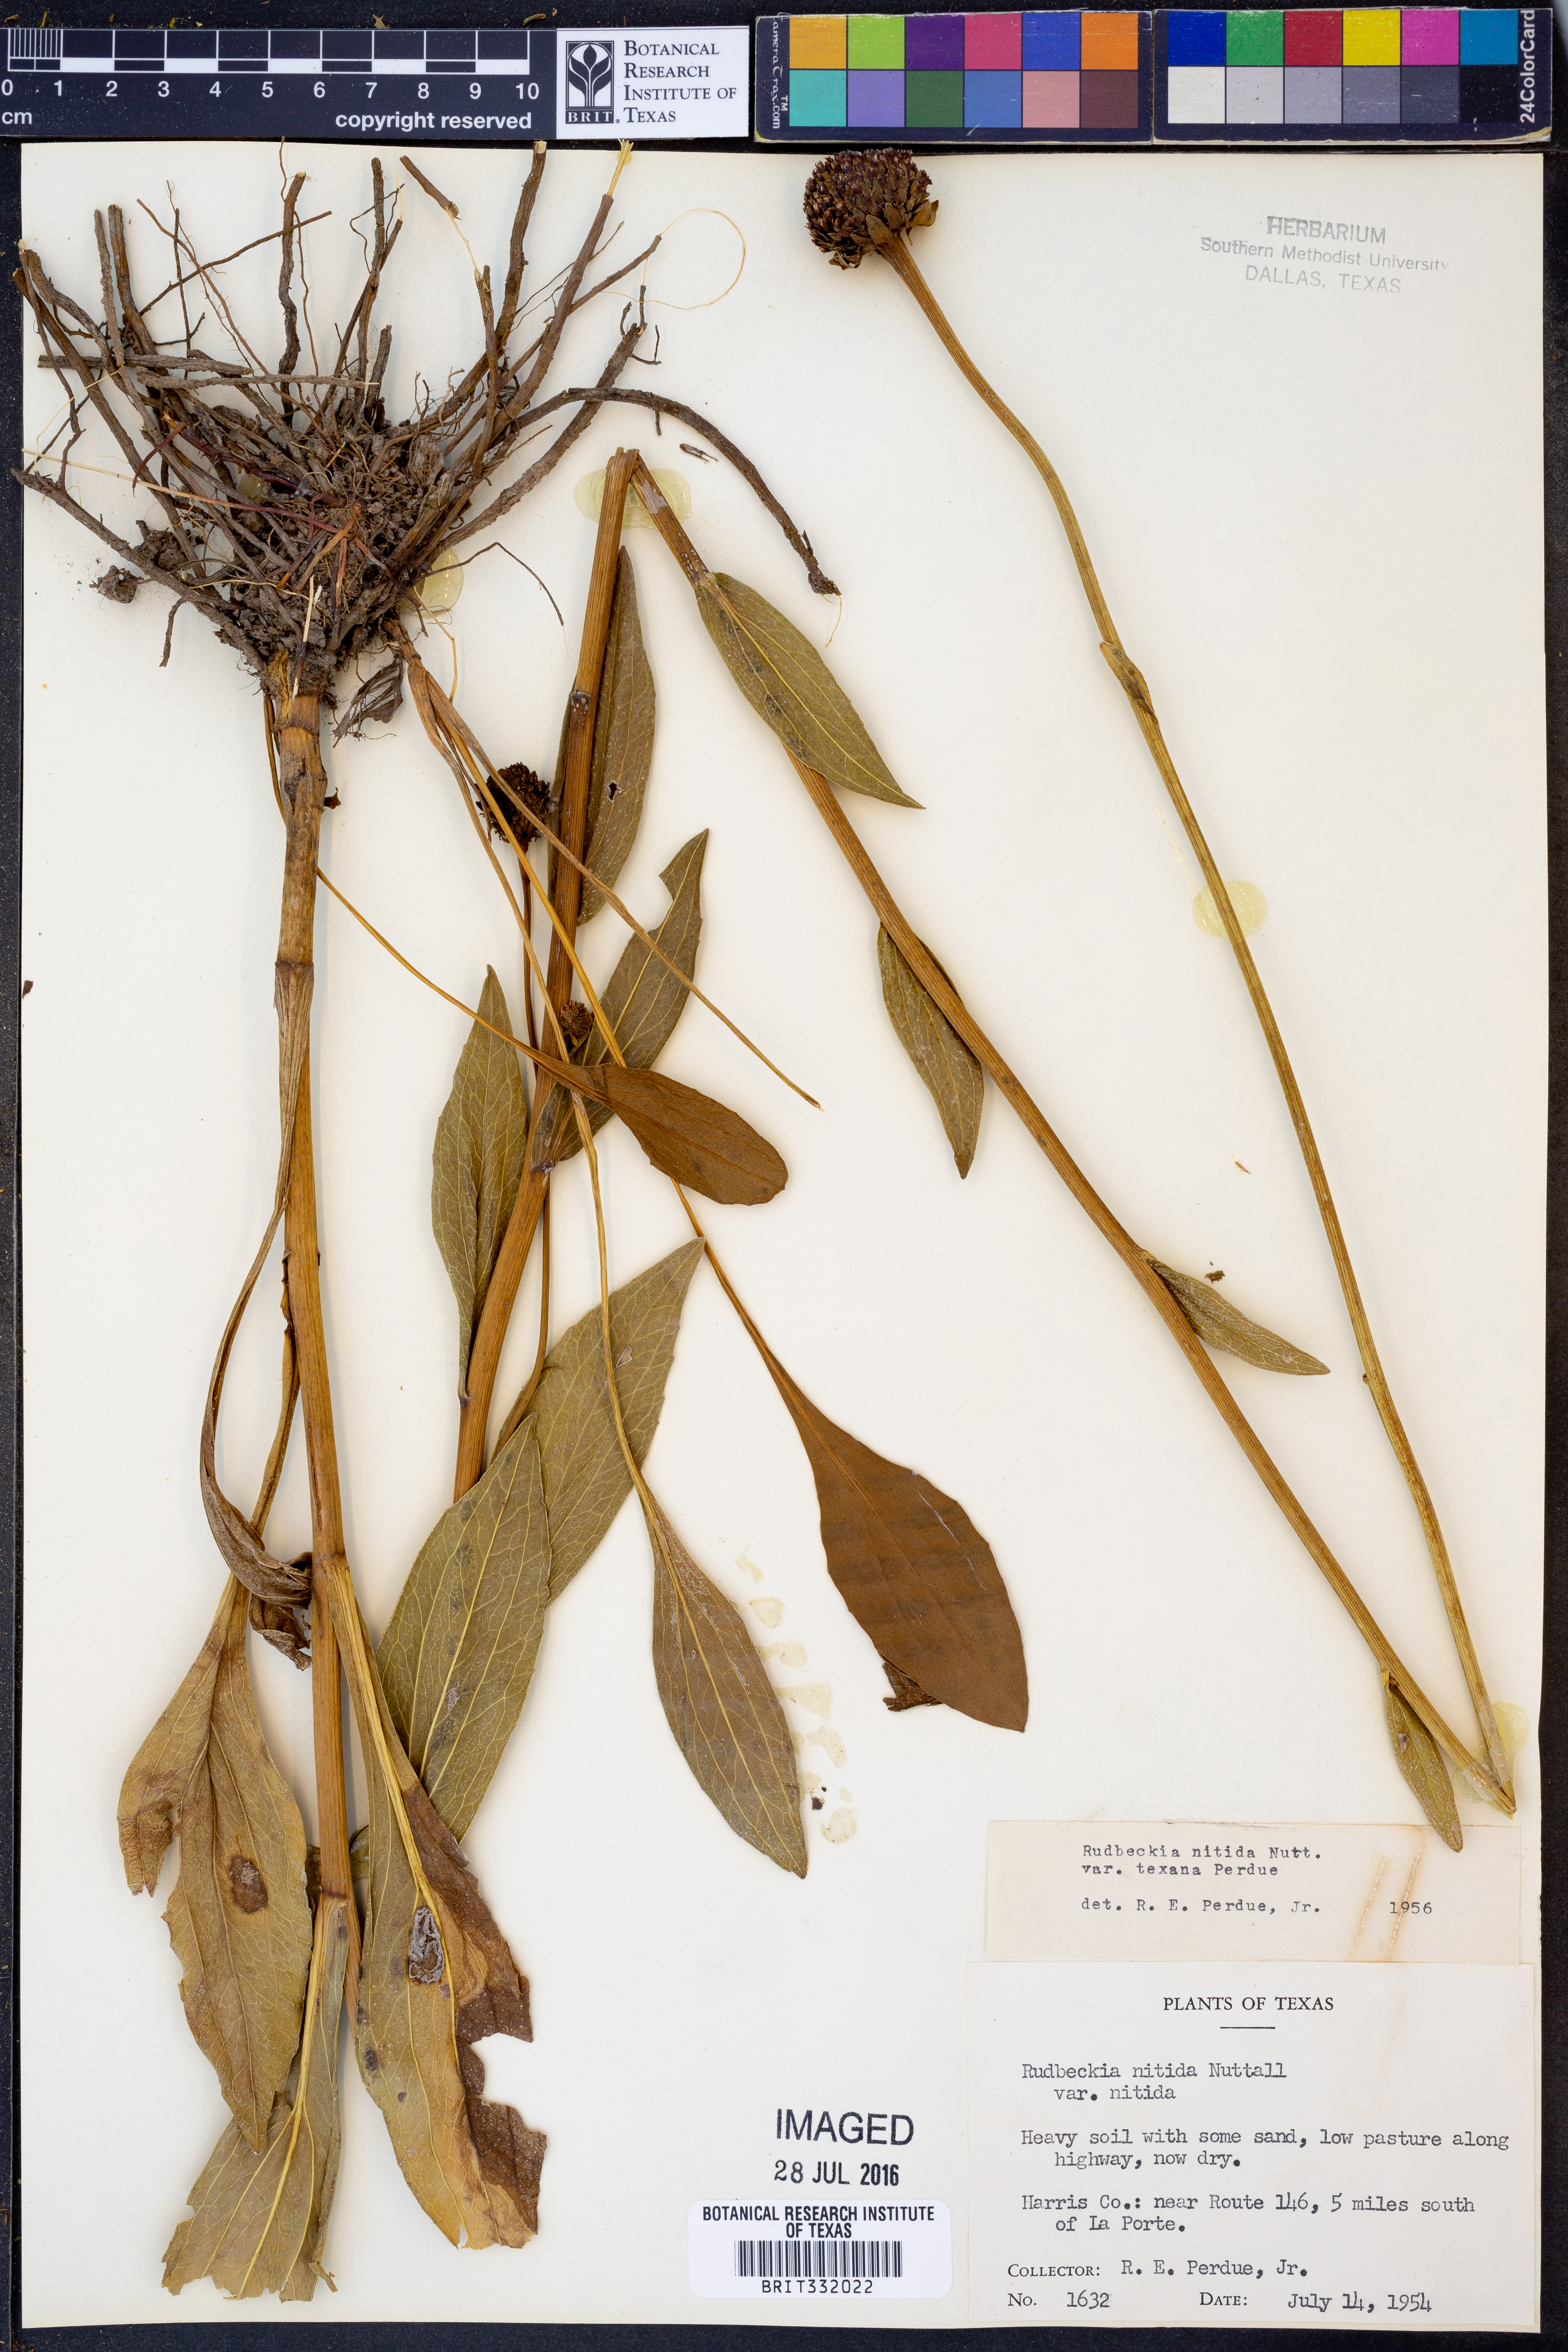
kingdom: Plantae
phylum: Tracheophyta
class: Magnoliopsida
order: Asterales
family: Asteraceae
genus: Rudbeckia
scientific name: Rudbeckia texana
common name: Texas coneflower
